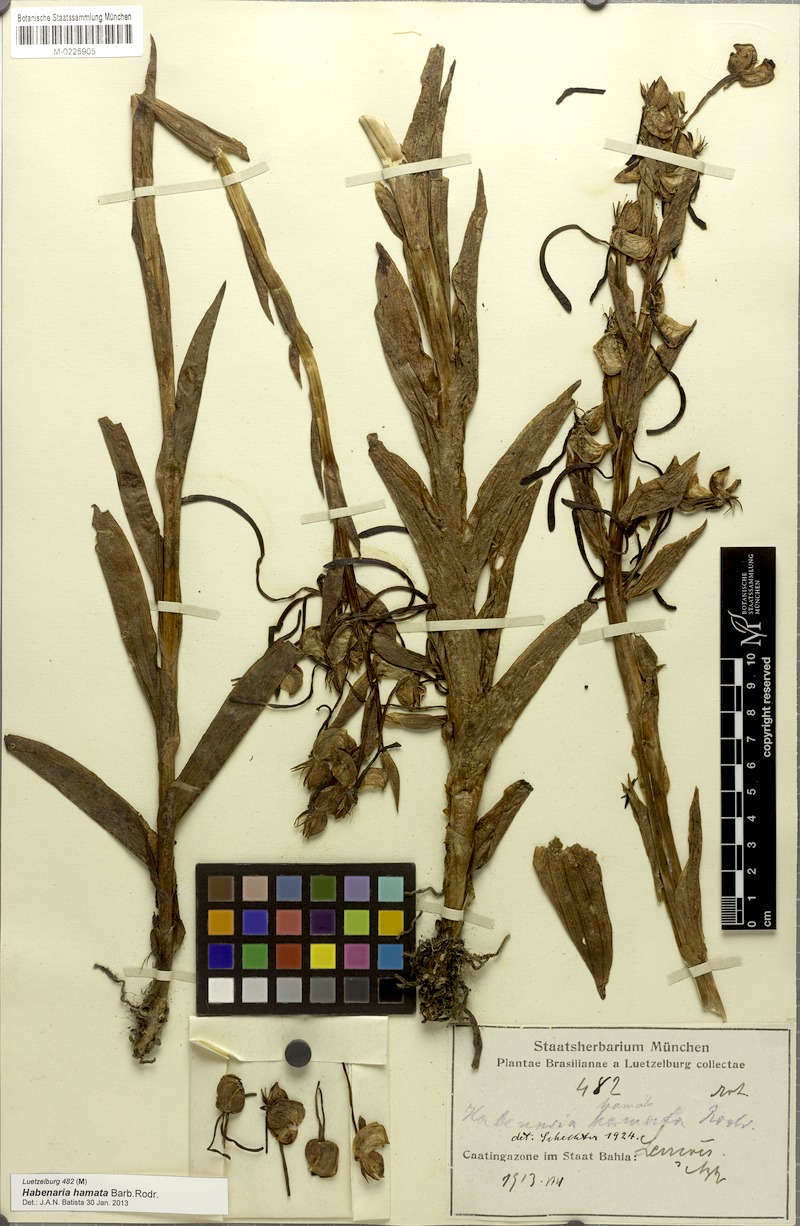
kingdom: Plantae
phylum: Tracheophyta
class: Liliopsida
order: Asparagales
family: Orchidaceae
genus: Habenaria
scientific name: Habenaria hamata
